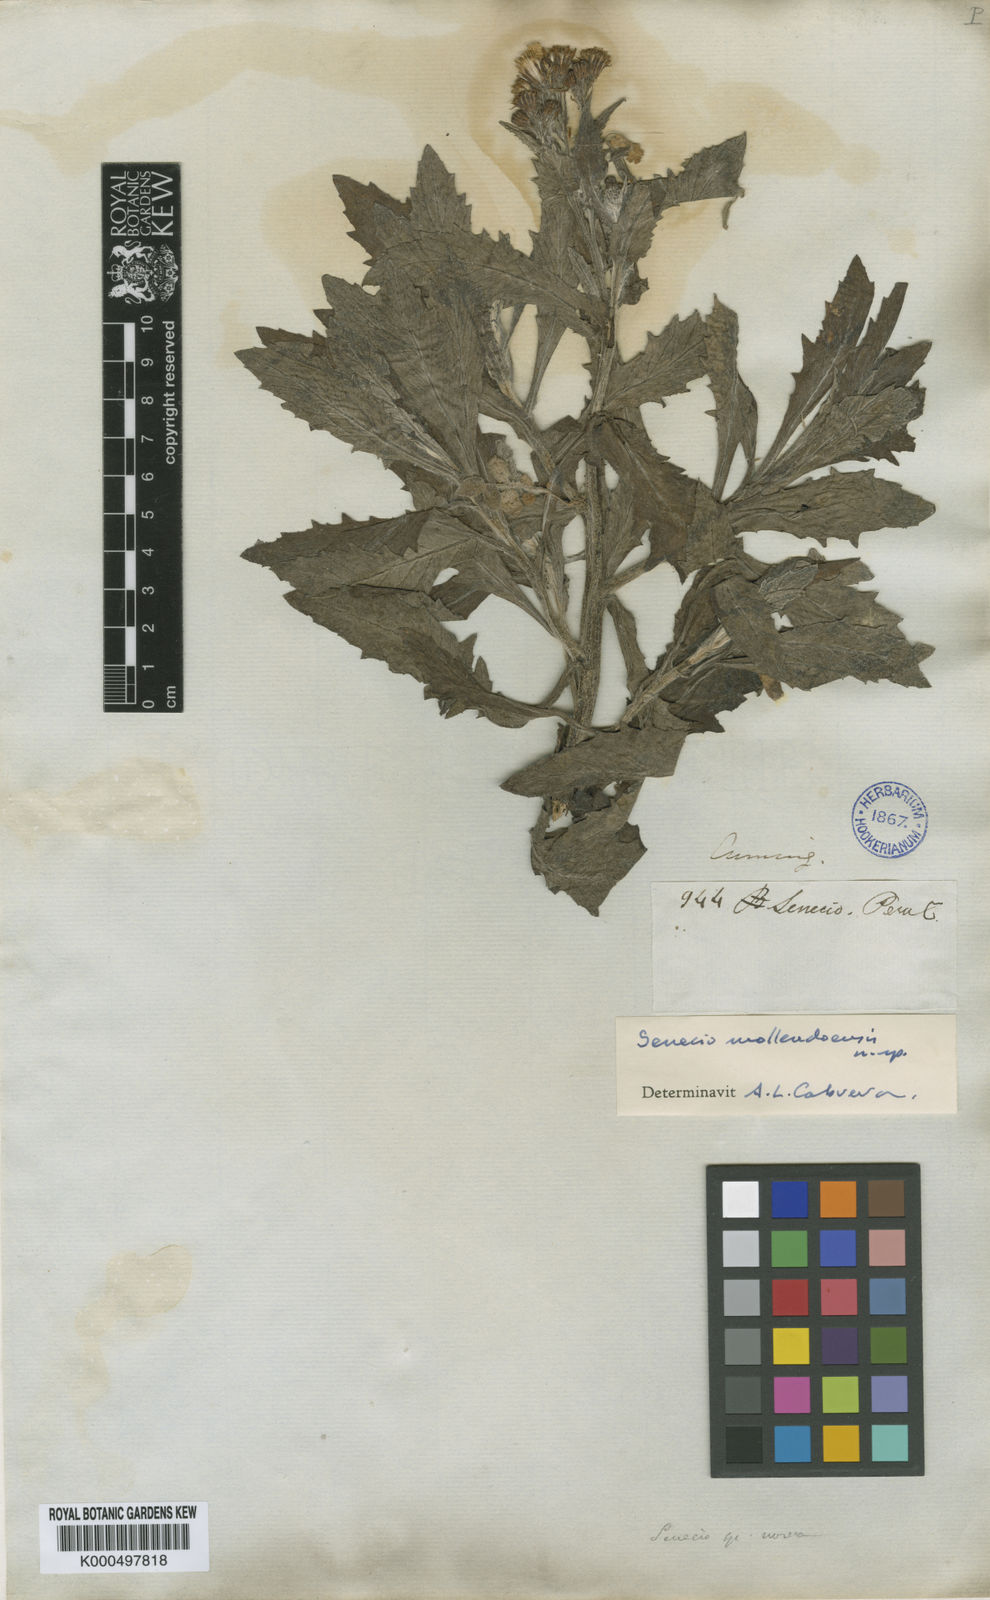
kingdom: Plantae
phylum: Tracheophyta
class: Magnoliopsida
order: Asterales
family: Asteraceae
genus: Lomanthus
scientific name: Lomanthus mollendoensis
